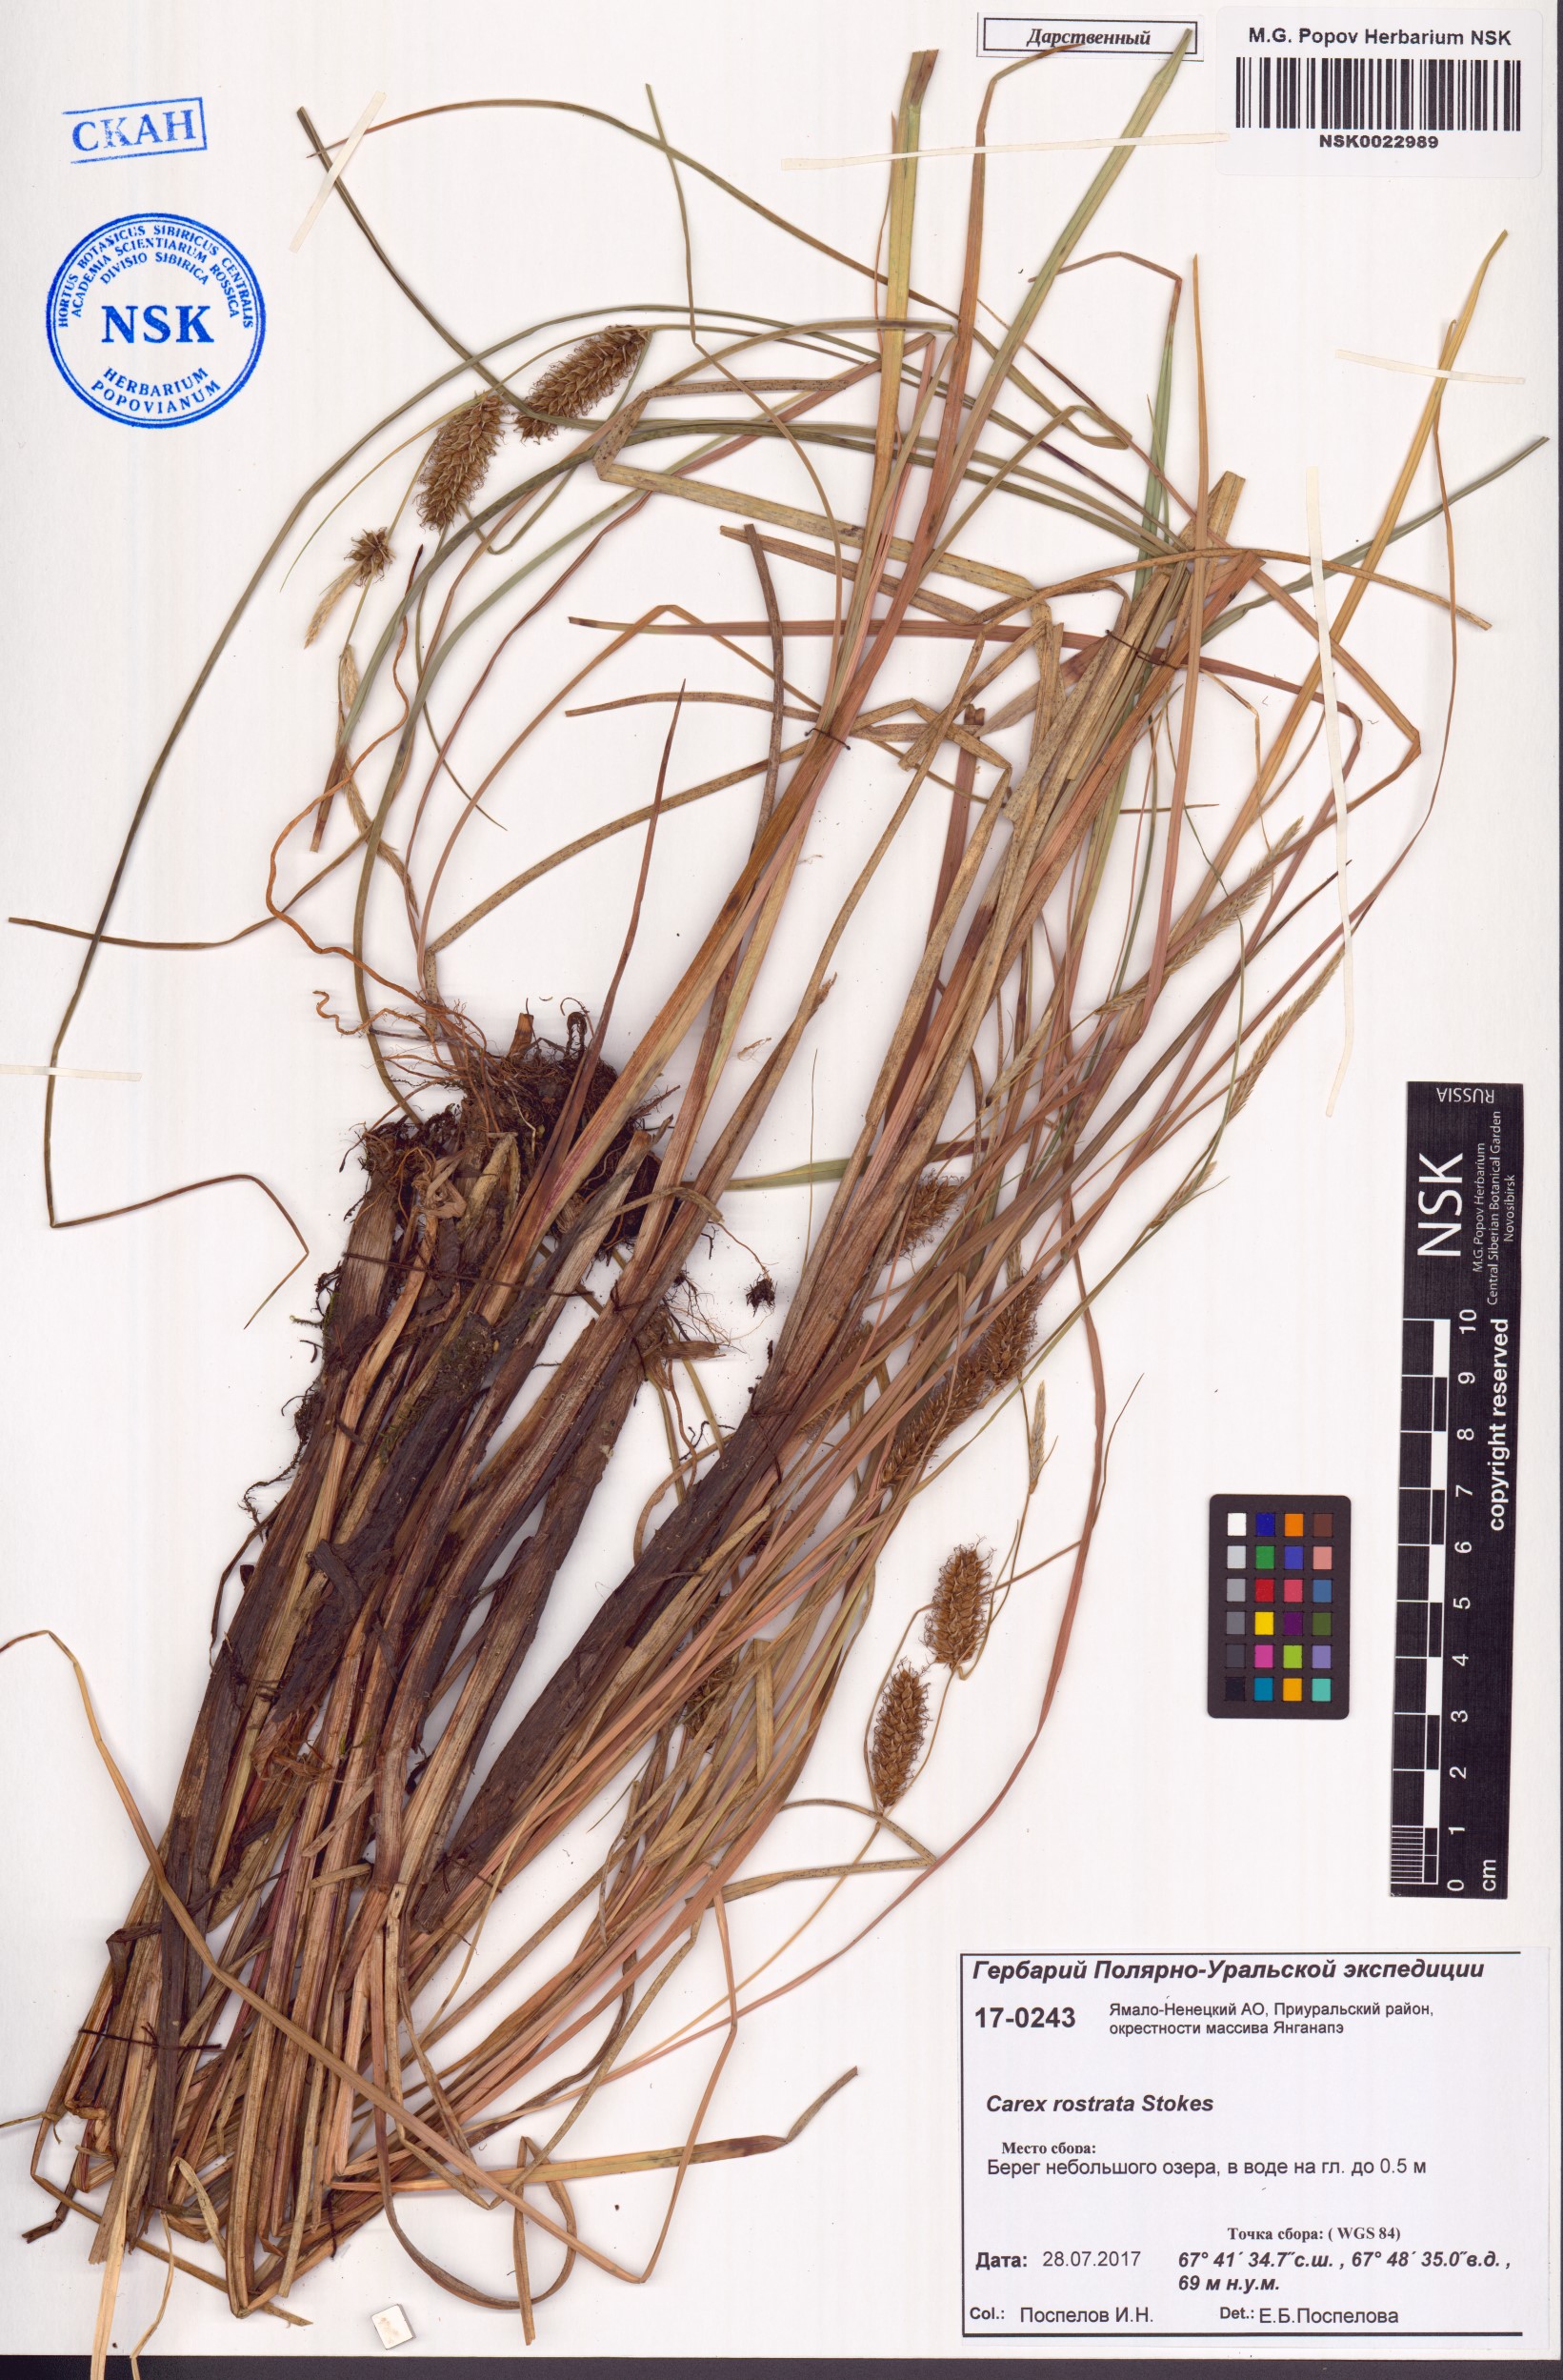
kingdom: Plantae
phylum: Tracheophyta
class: Liliopsida
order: Poales
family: Cyperaceae
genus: Carex
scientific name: Carex rostrata
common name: Bottle sedge
